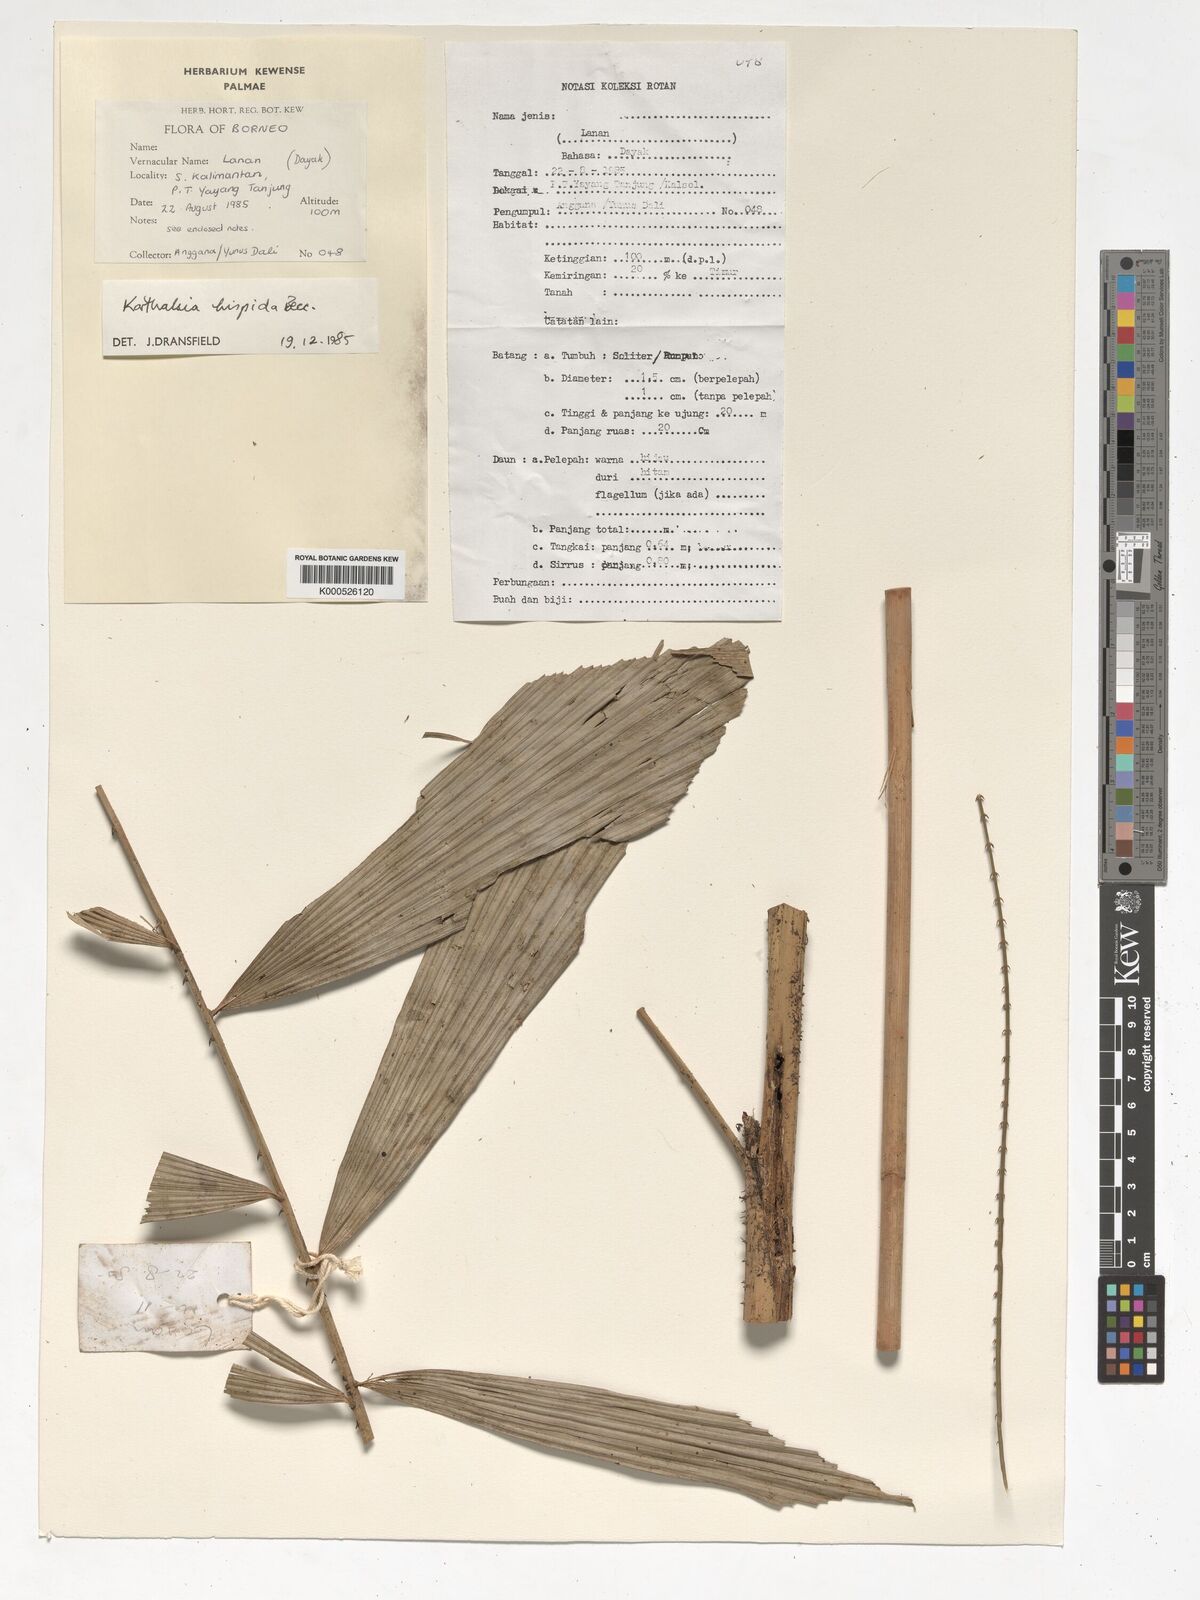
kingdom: Plantae
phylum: Tracheophyta
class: Liliopsida
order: Arecales
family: Arecaceae
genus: Korthalsia
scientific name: Korthalsia hispida
